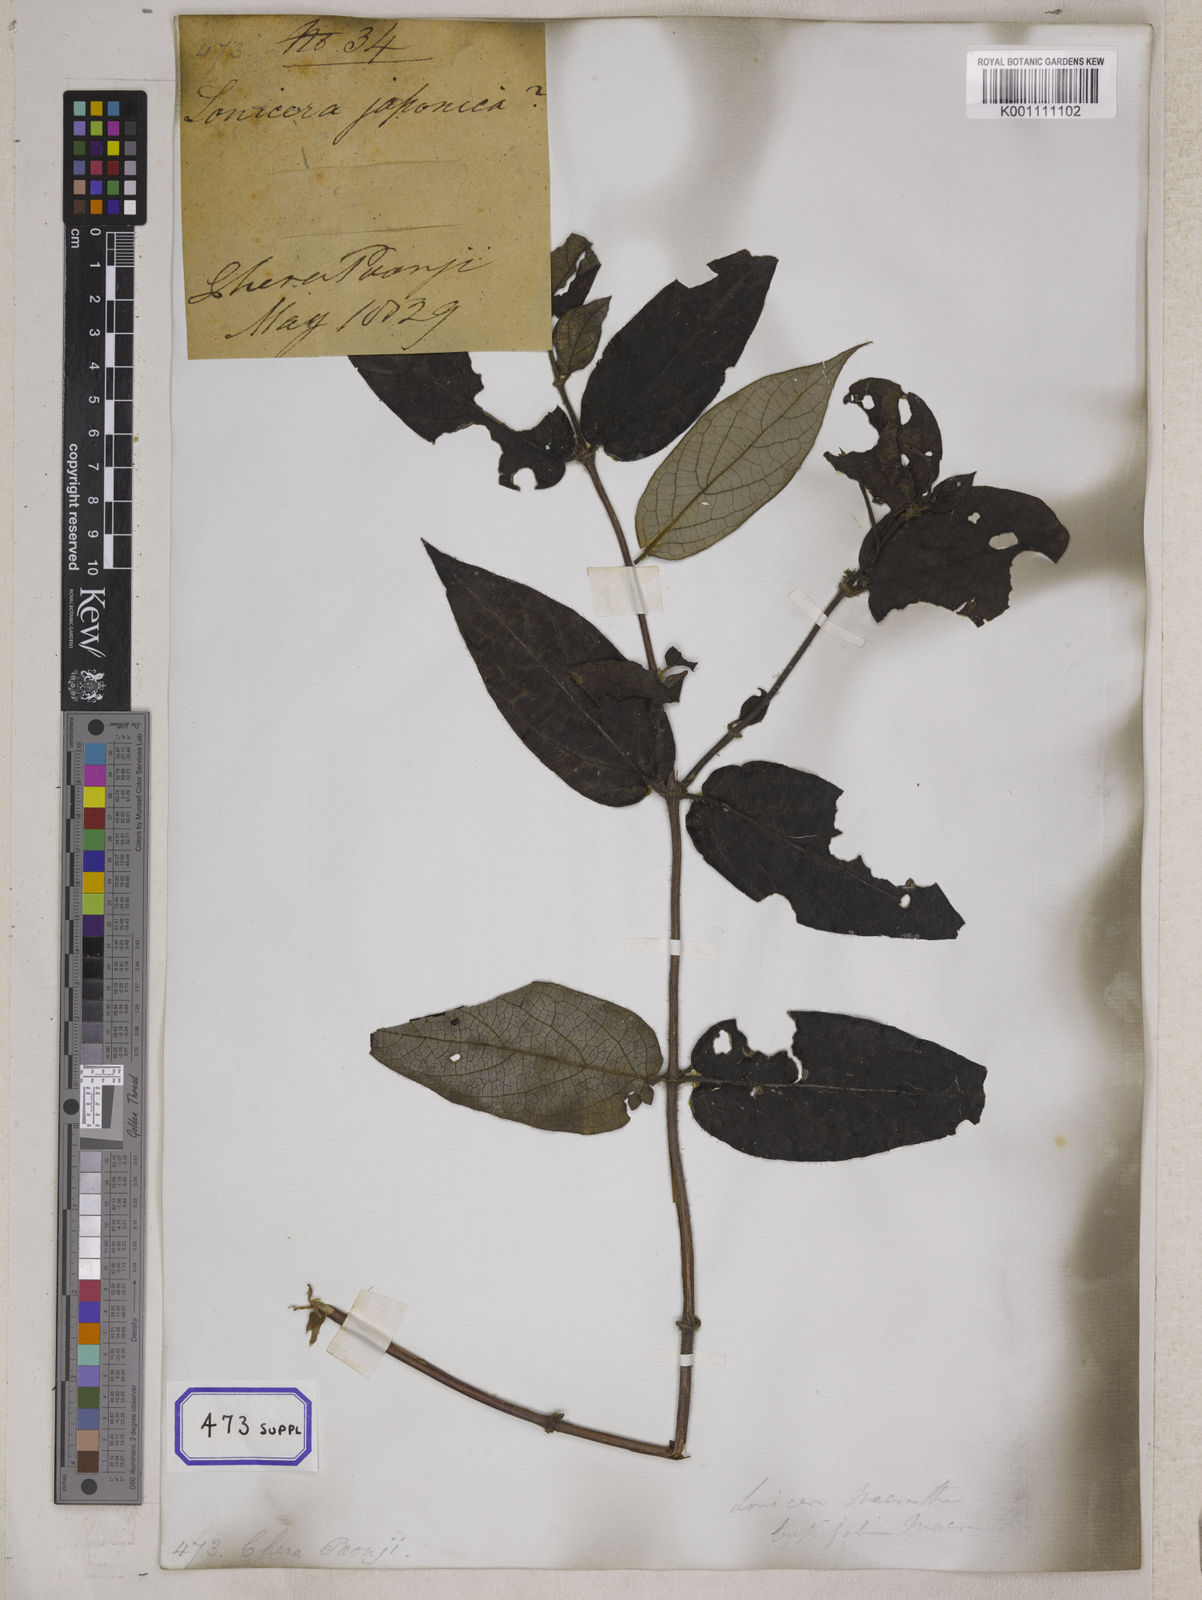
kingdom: Plantae
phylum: Tracheophyta
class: Magnoliopsida
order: Dipsacales
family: Caprifoliaceae
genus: Lonicera
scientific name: Lonicera japonica
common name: Japanese honeysuckle
